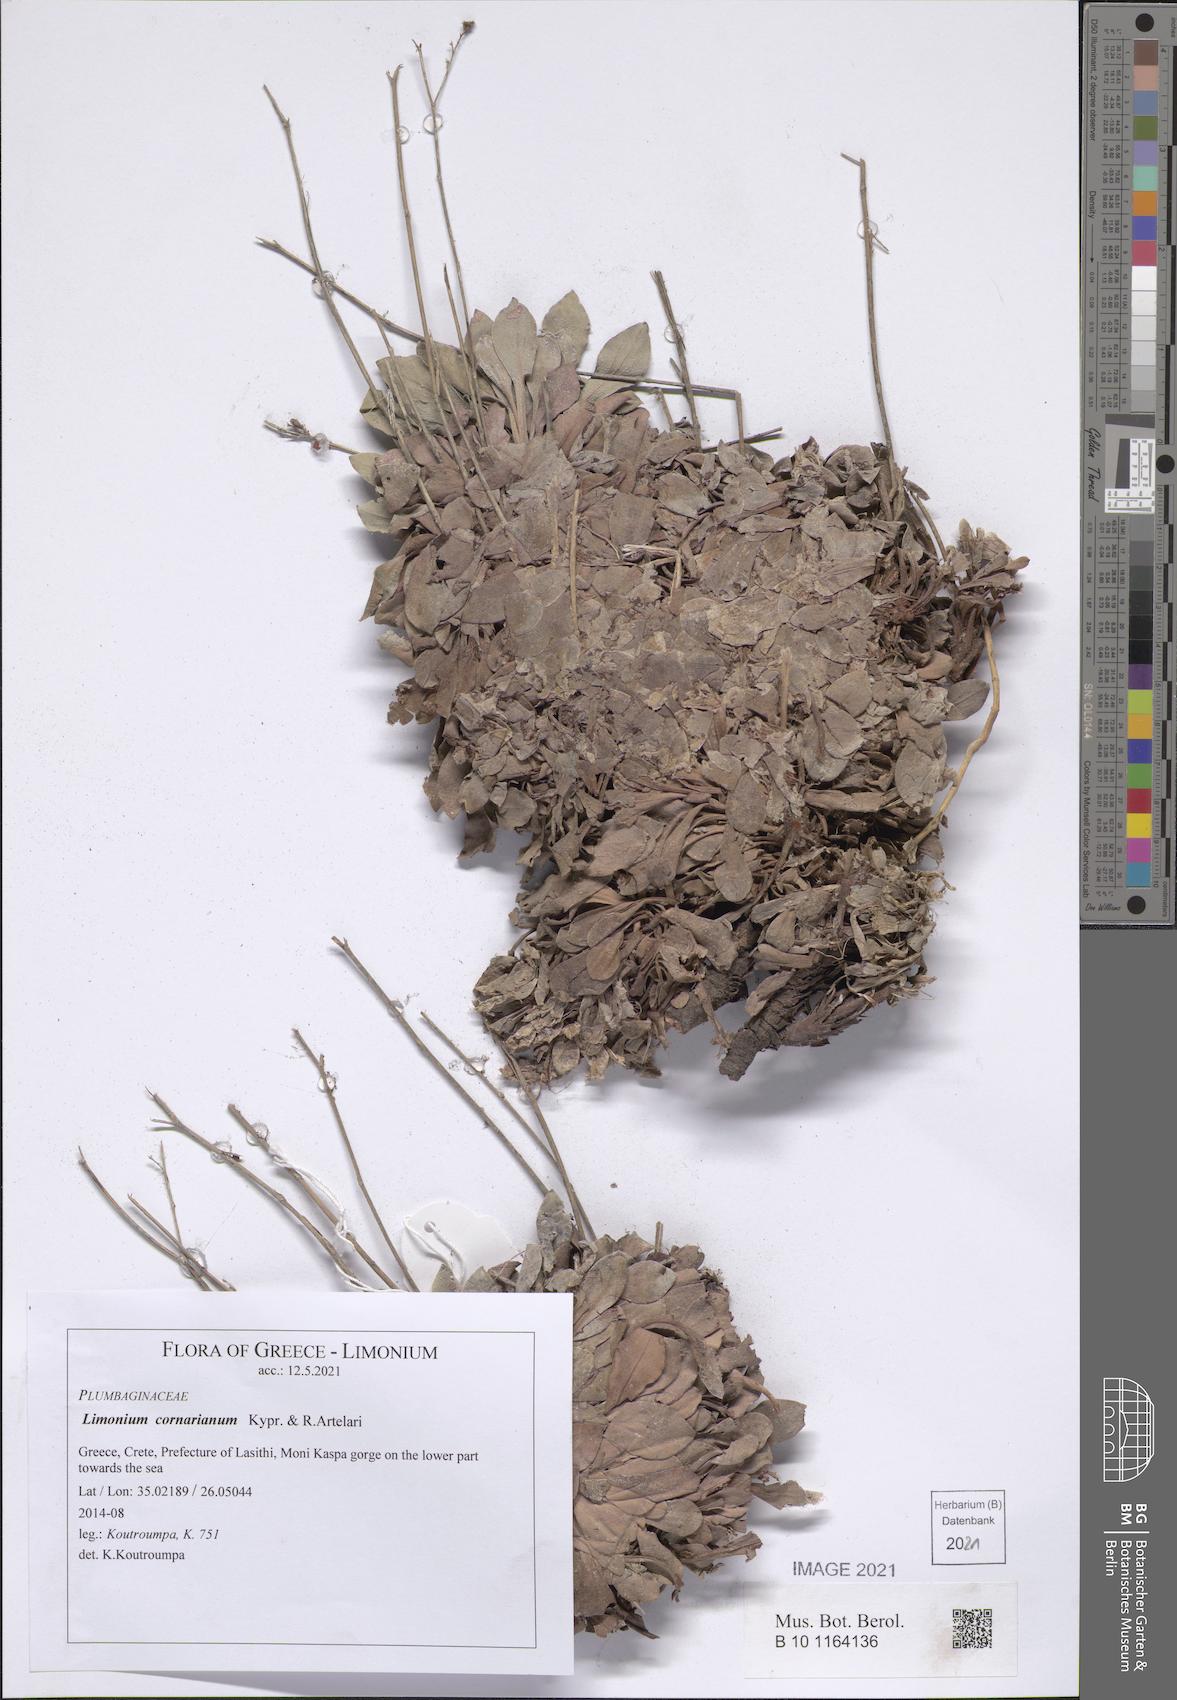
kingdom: Plantae
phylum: Tracheophyta
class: Magnoliopsida
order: Caryophyllales
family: Plumbaginaceae
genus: Limonium
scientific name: Limonium cornarianum
